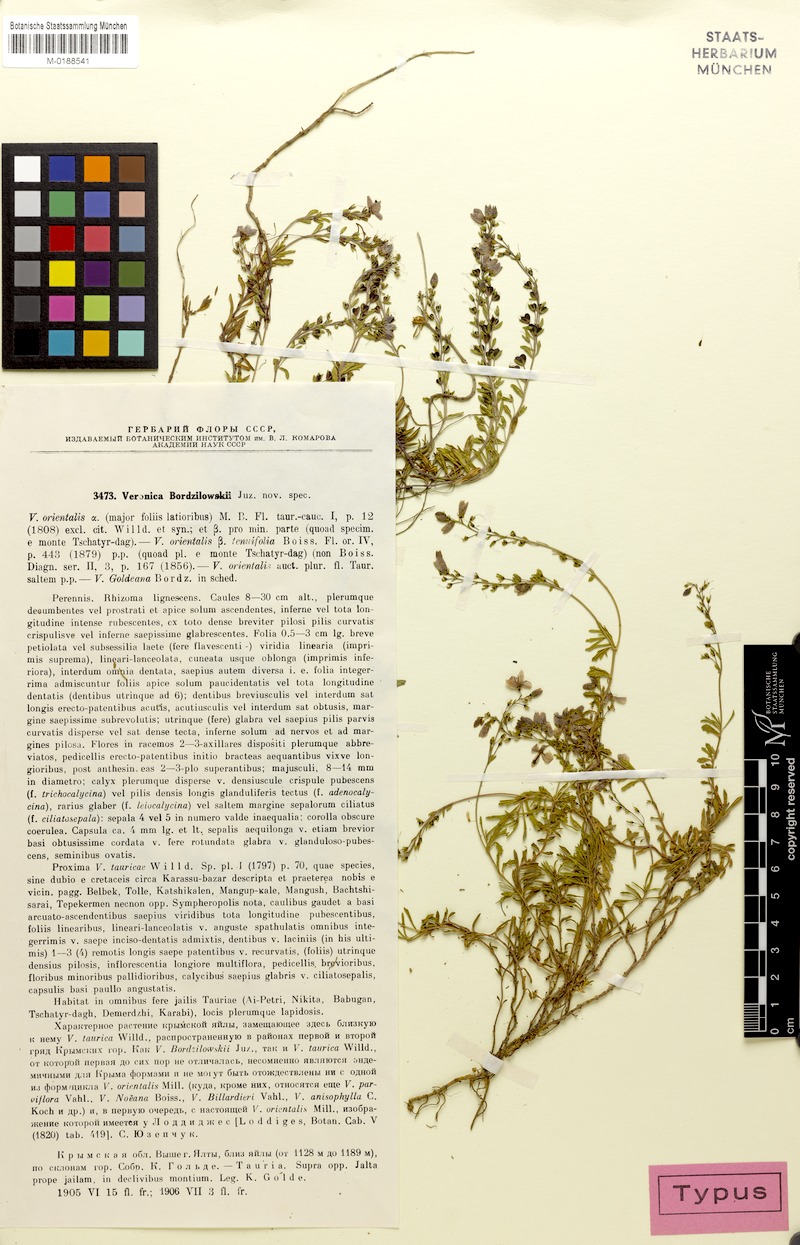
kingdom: Plantae
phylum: Tracheophyta
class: Magnoliopsida
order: Lamiales
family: Plantaginaceae
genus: Veronica
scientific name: Veronica taurica
